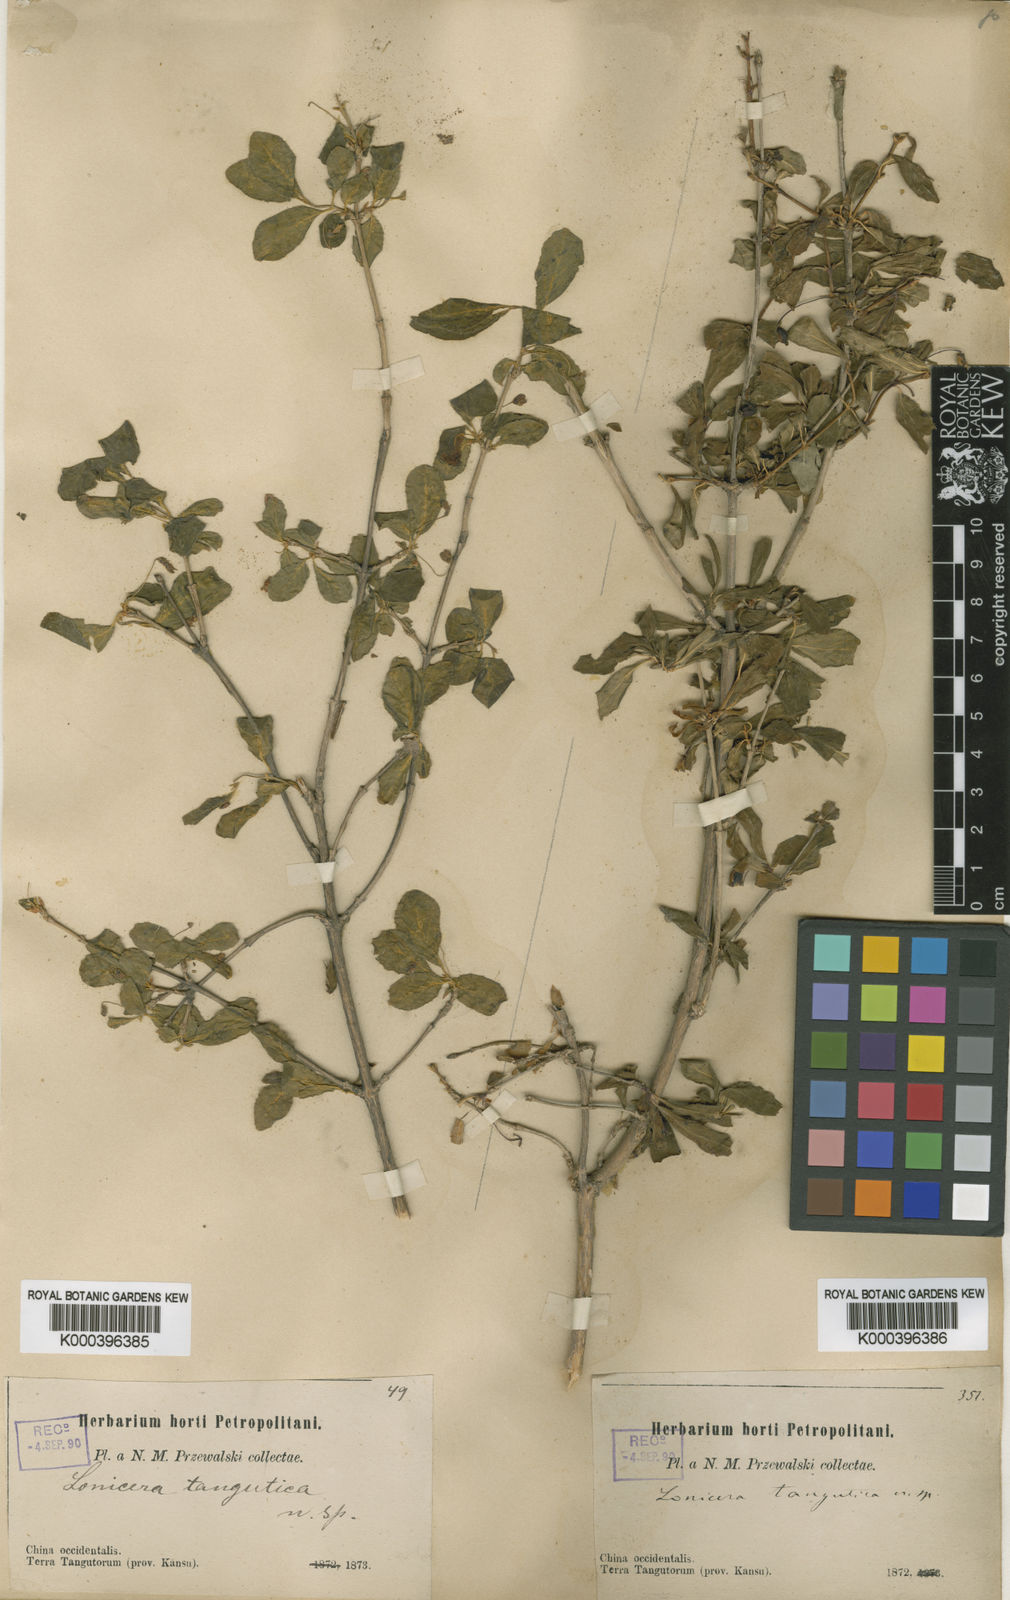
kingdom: Plantae
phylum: Tracheophyta
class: Magnoliopsida
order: Dipsacales
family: Caprifoliaceae
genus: Lonicera
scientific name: Lonicera tangutica
